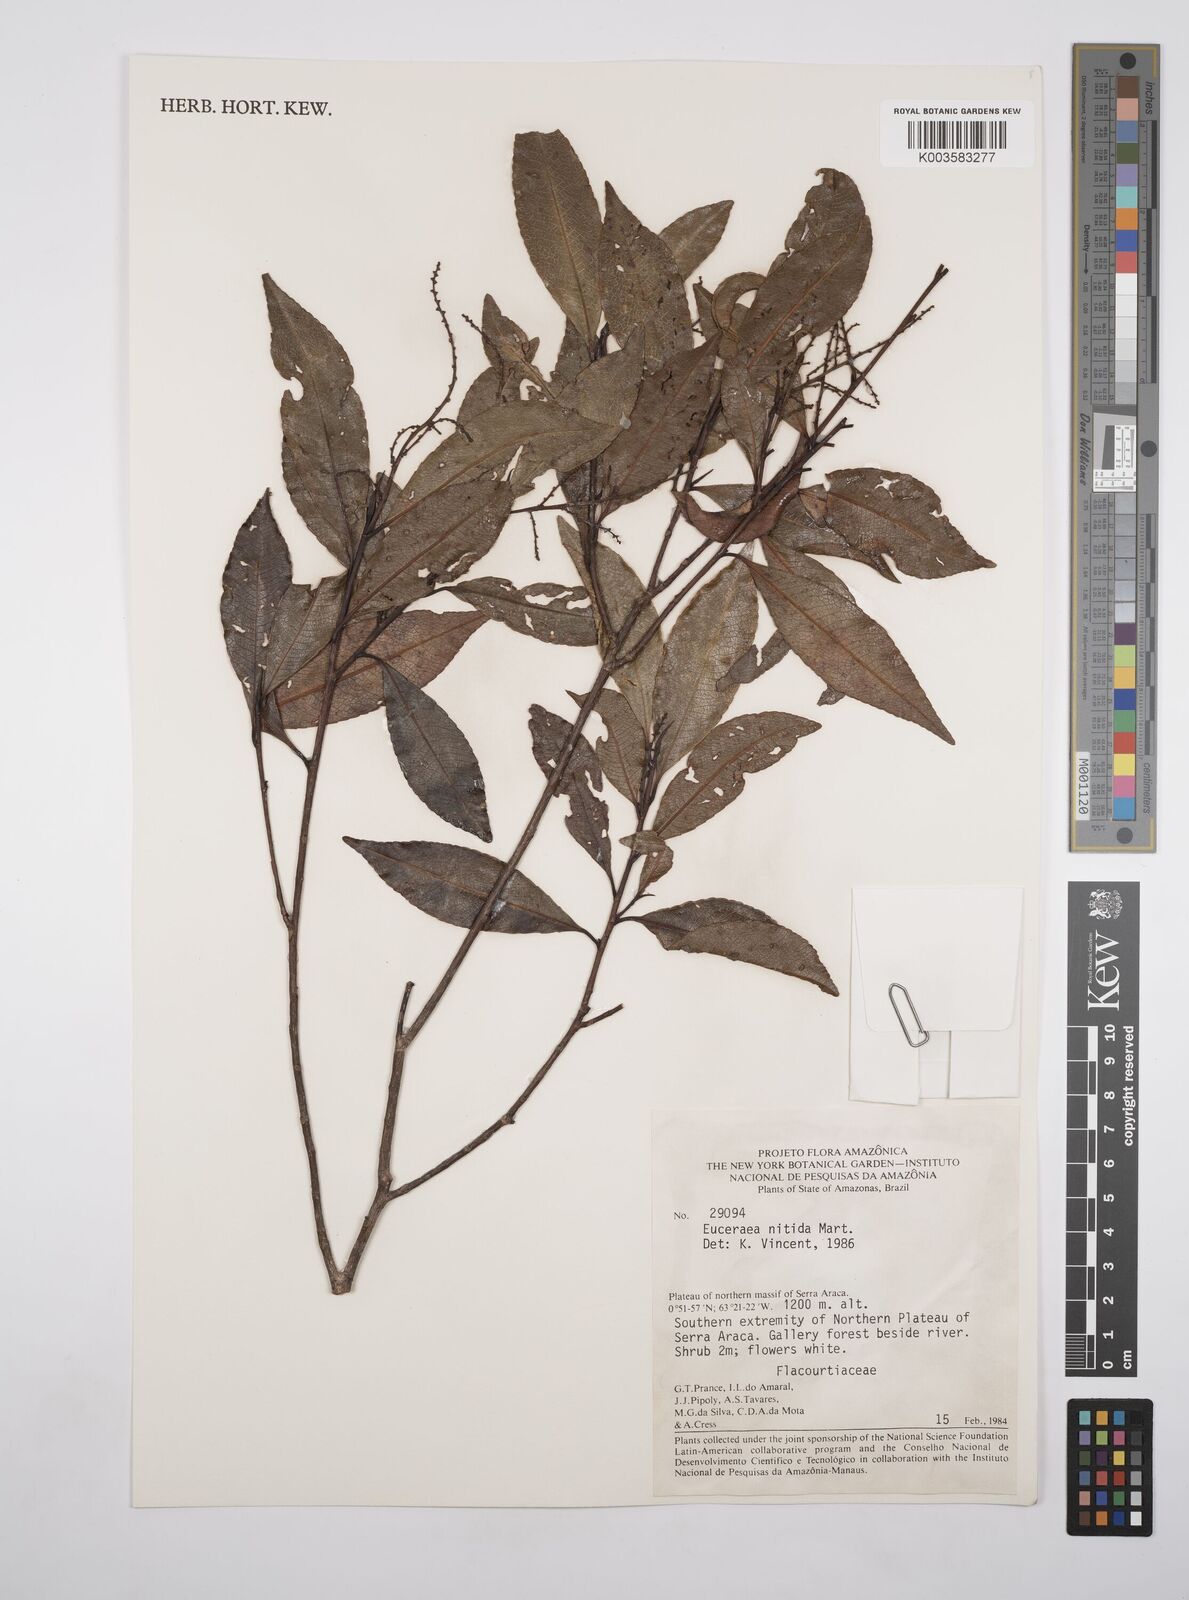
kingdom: Plantae
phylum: Tracheophyta
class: Magnoliopsida
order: Malpighiales
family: Salicaceae
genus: Casearia
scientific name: Casearia euceraea
